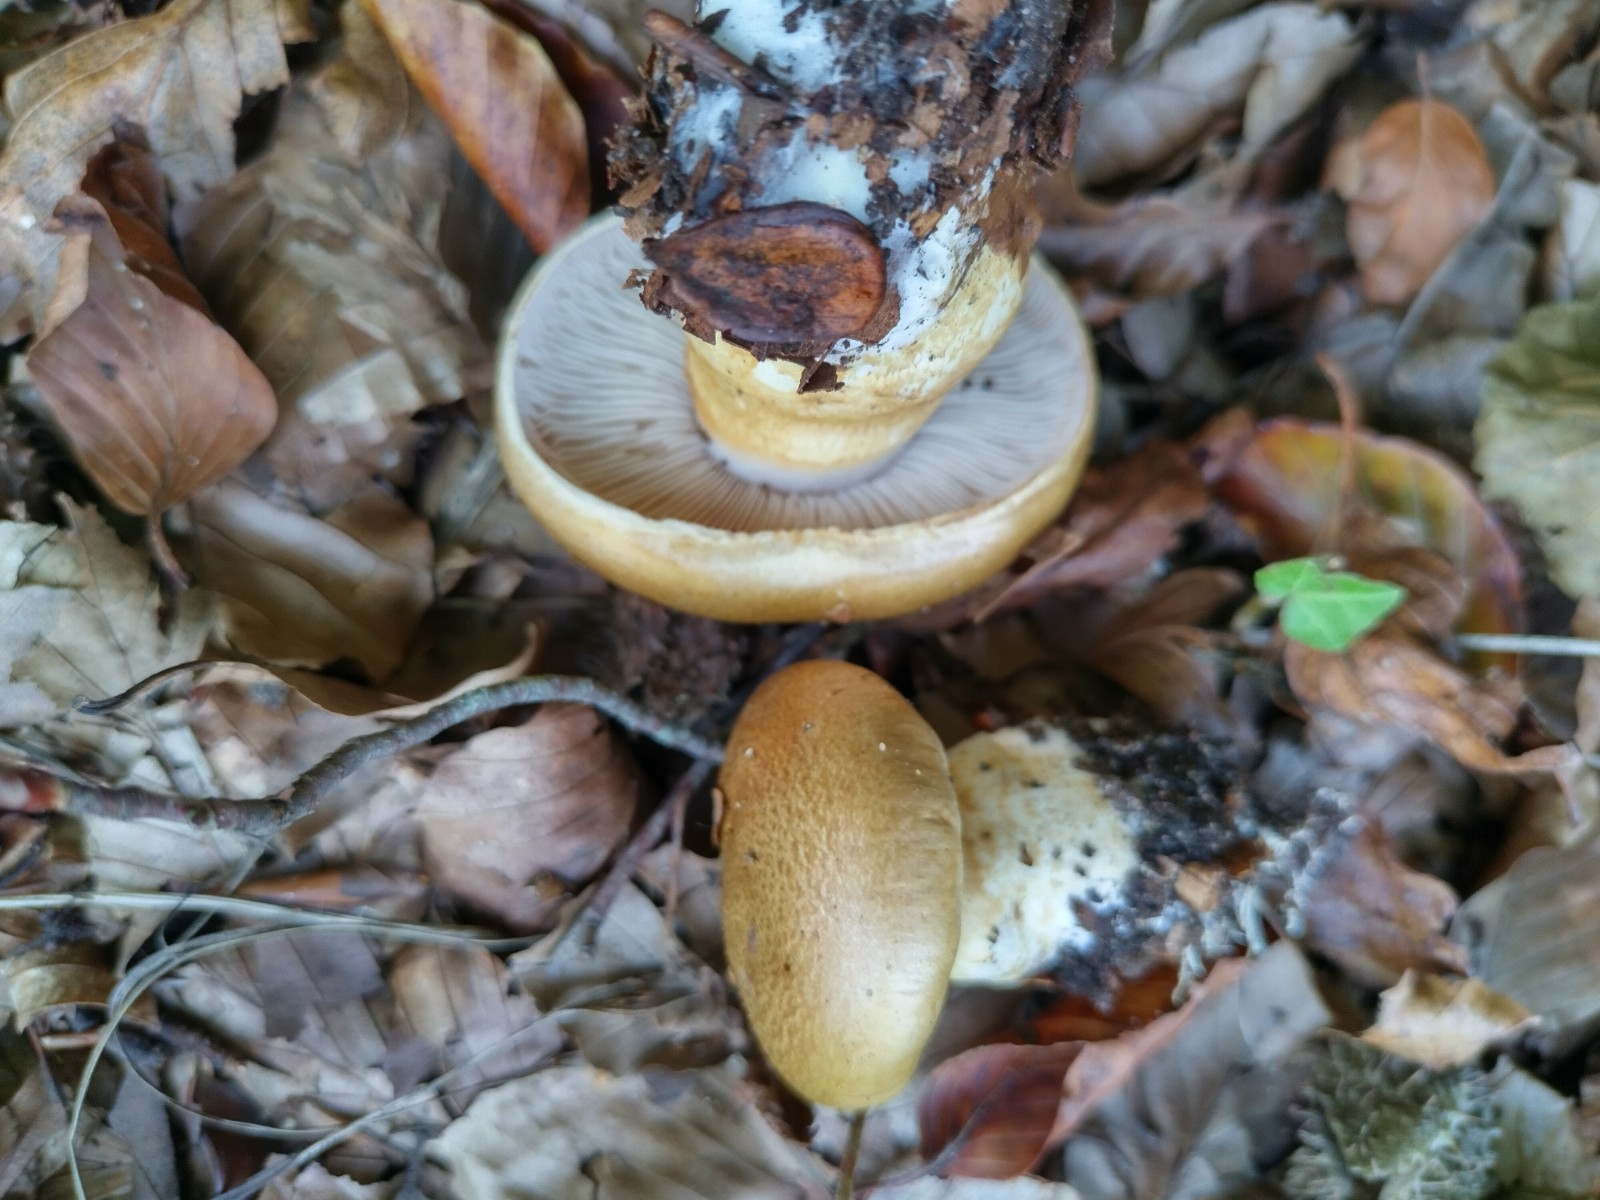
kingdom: Fungi
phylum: Basidiomycota
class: Agaricomycetes
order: Agaricales
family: Cortinariaceae
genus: Phlegmacium
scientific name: Phlegmacium cliduchus
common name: majs-slørhat
